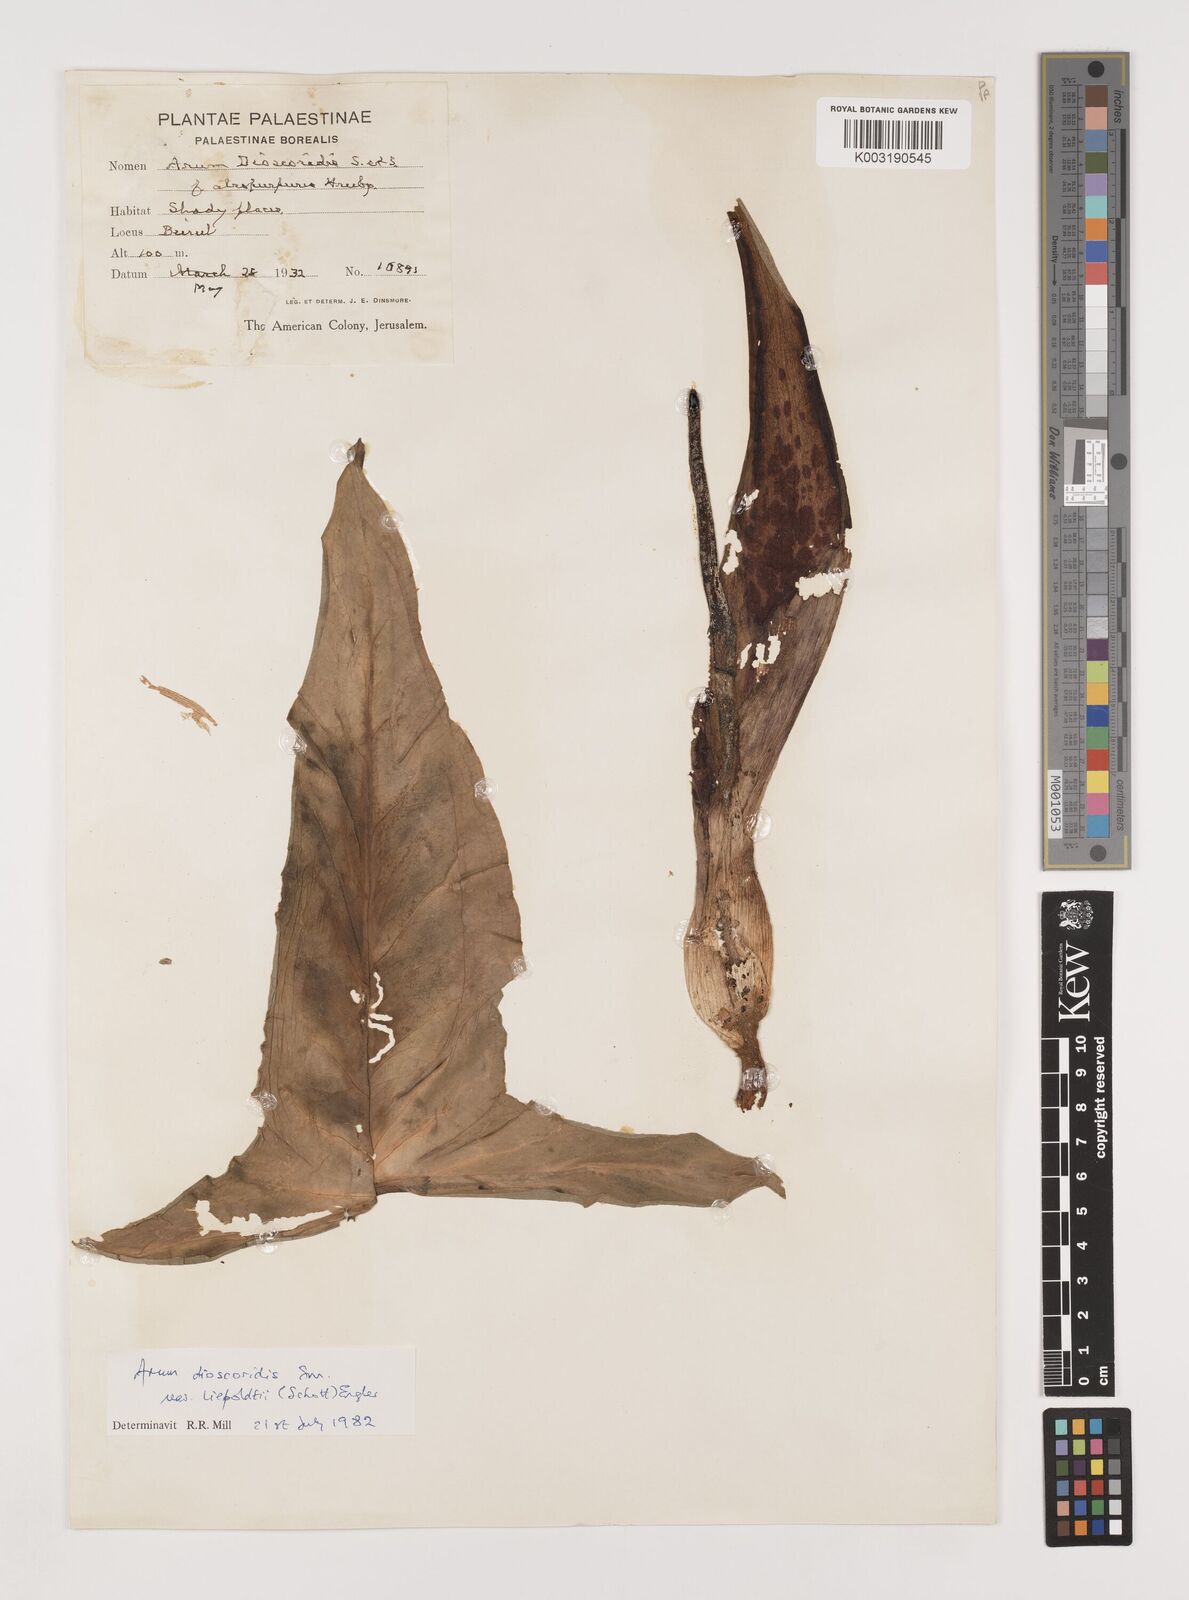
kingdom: Plantae
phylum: Tracheophyta
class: Liliopsida
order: Alismatales
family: Araceae
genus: Arum
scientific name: Arum dioscoridis
